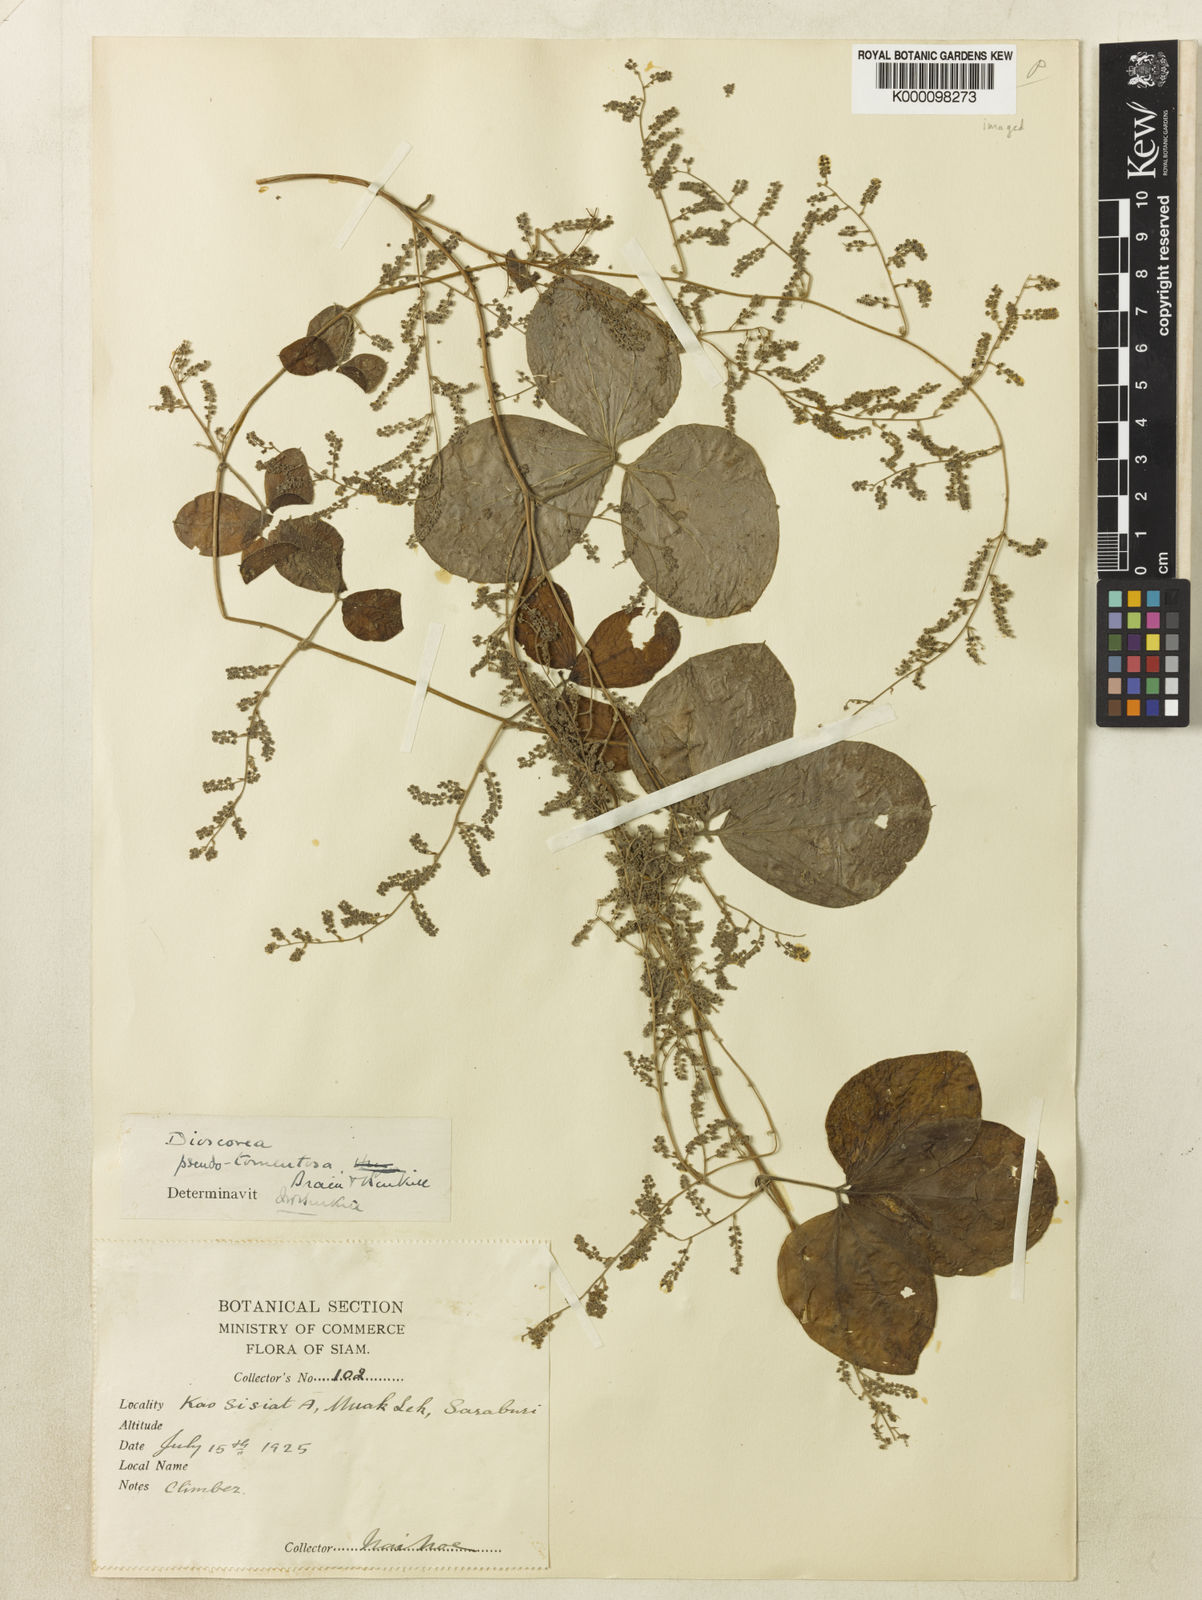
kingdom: Plantae
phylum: Tracheophyta
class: Liliopsida
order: Dioscoreales
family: Dioscoreaceae
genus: Dioscorea
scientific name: Dioscorea pseudotomentosa
